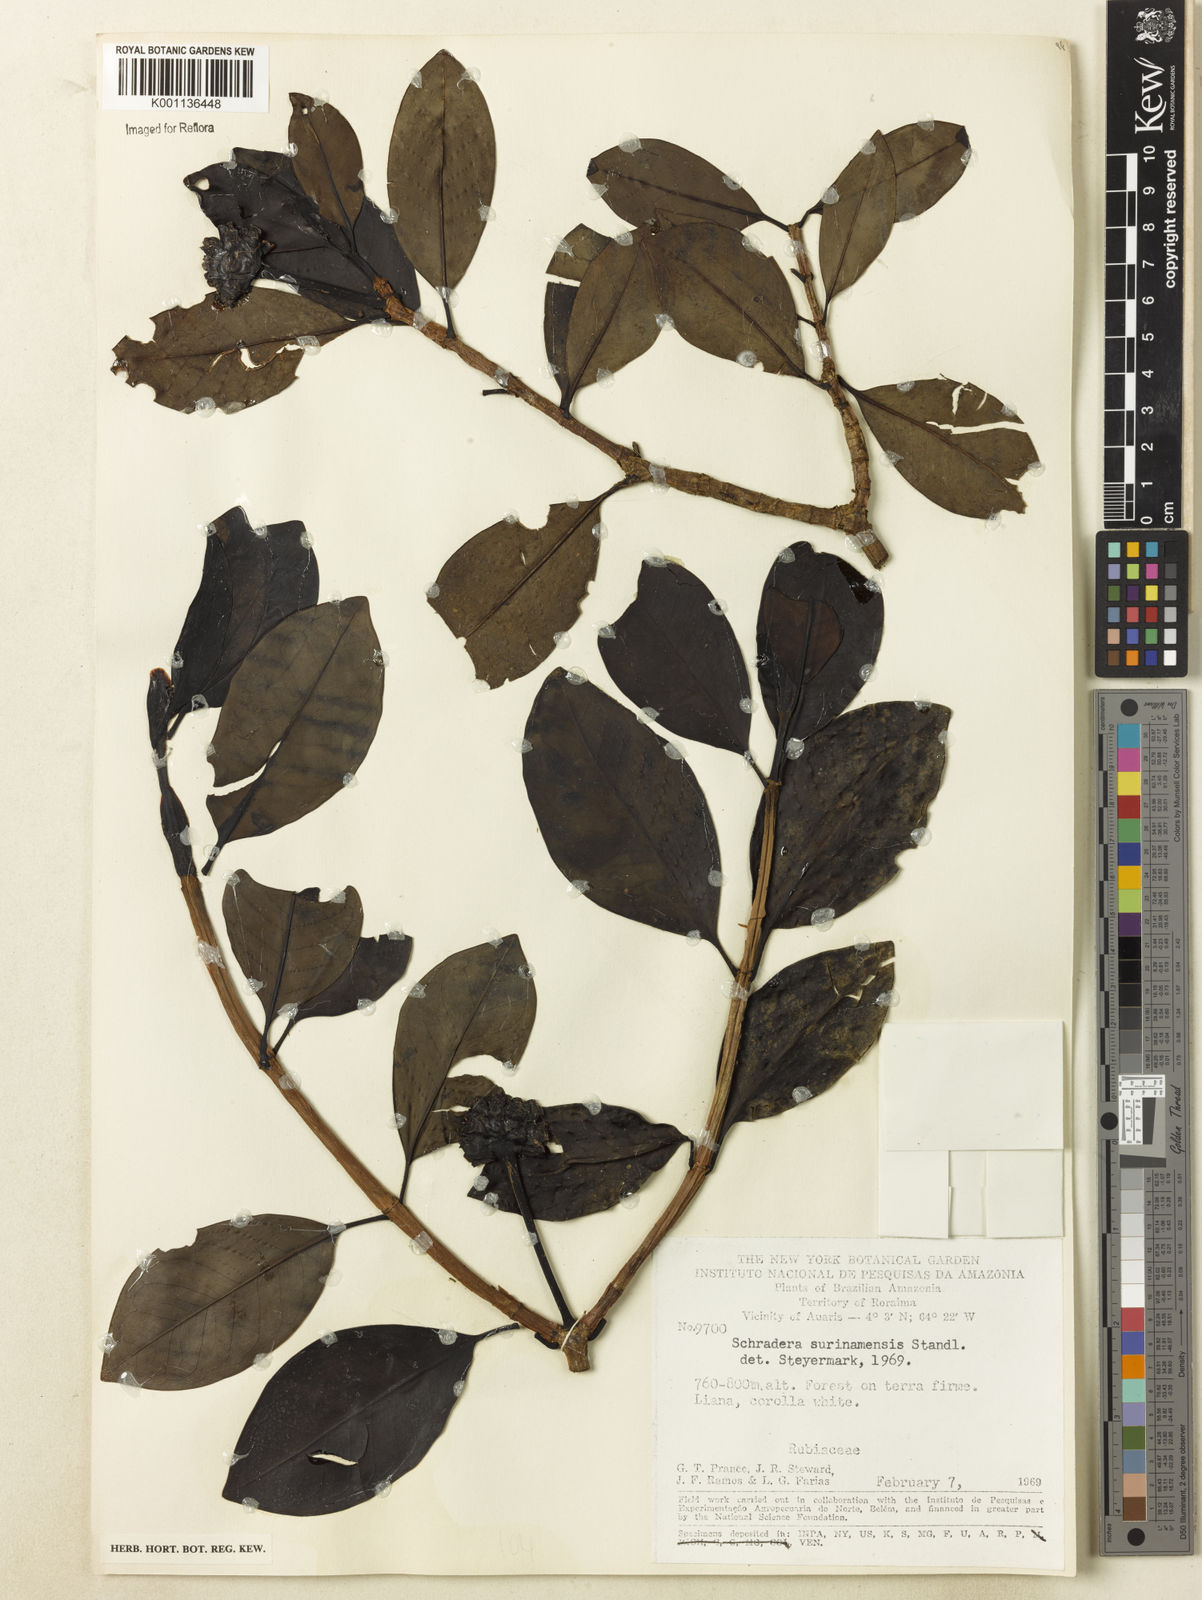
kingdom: Plantae
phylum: Tracheophyta
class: Magnoliopsida
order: Gentianales
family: Rubiaceae
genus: Schradera
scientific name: Schradera surinamensis
